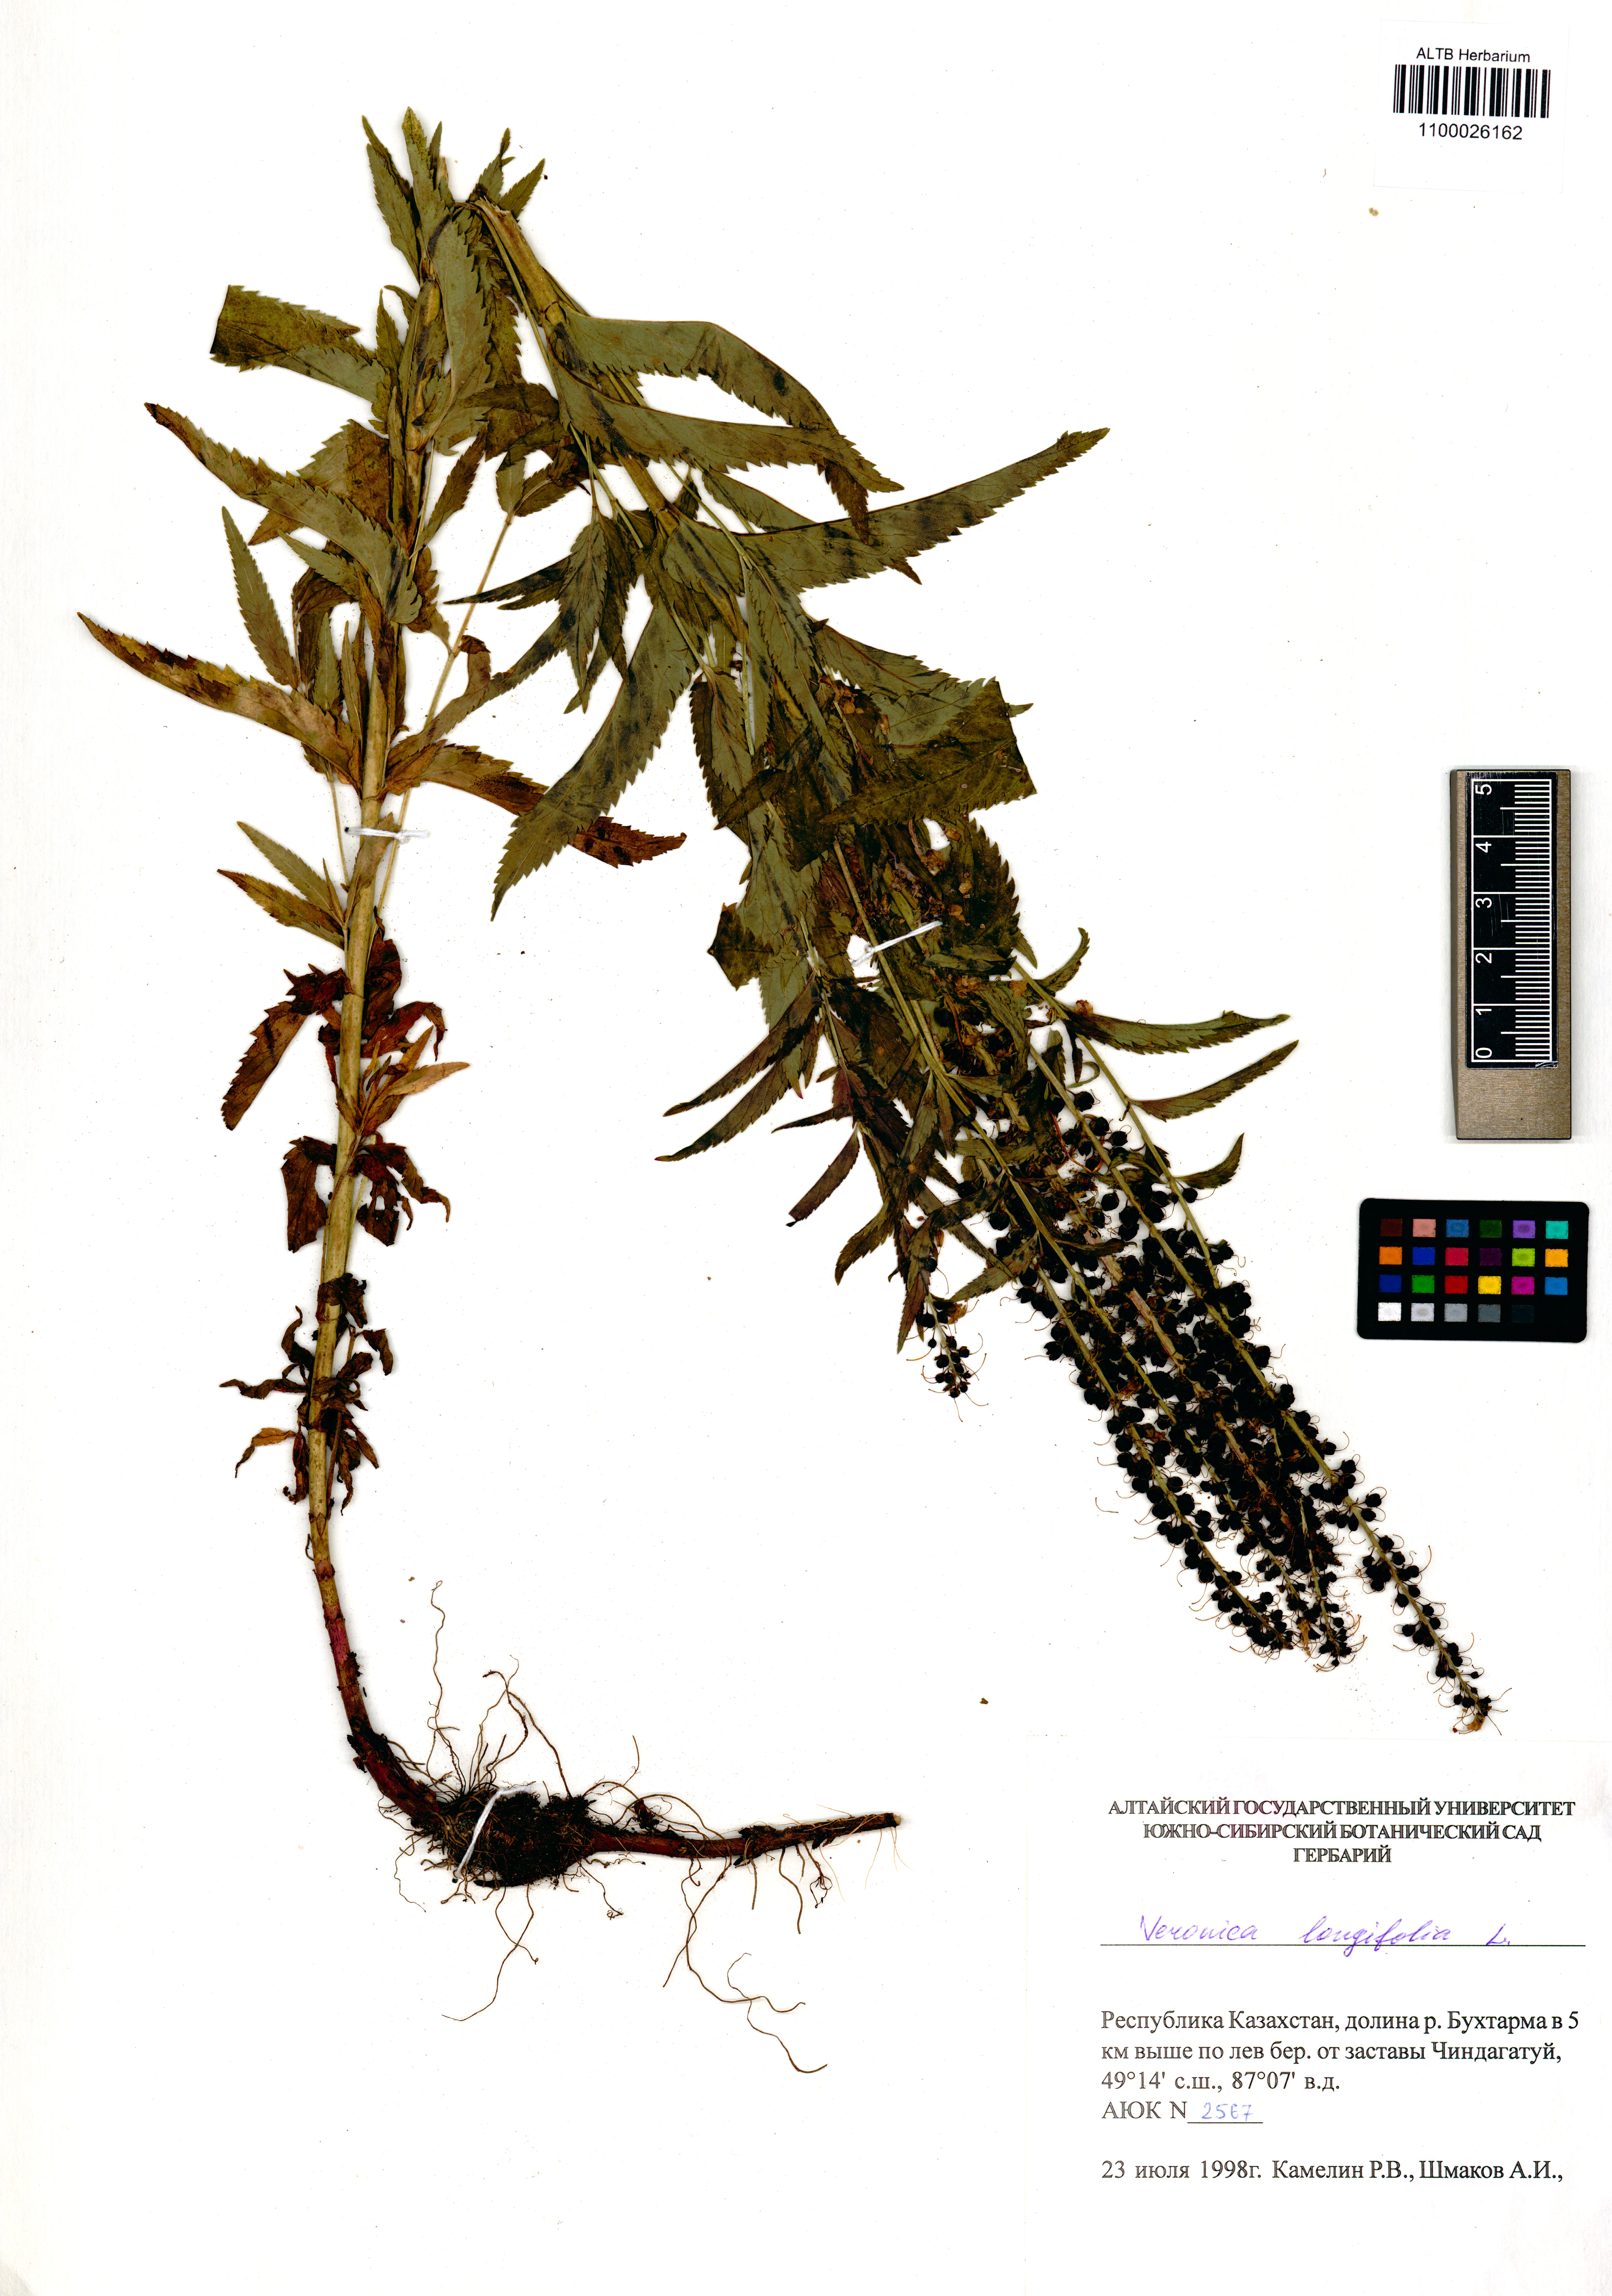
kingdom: Plantae
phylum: Tracheophyta
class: Magnoliopsida
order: Lamiales
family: Plantaginaceae
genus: Veronica
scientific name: Veronica longifolia
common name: Garden speedwell
